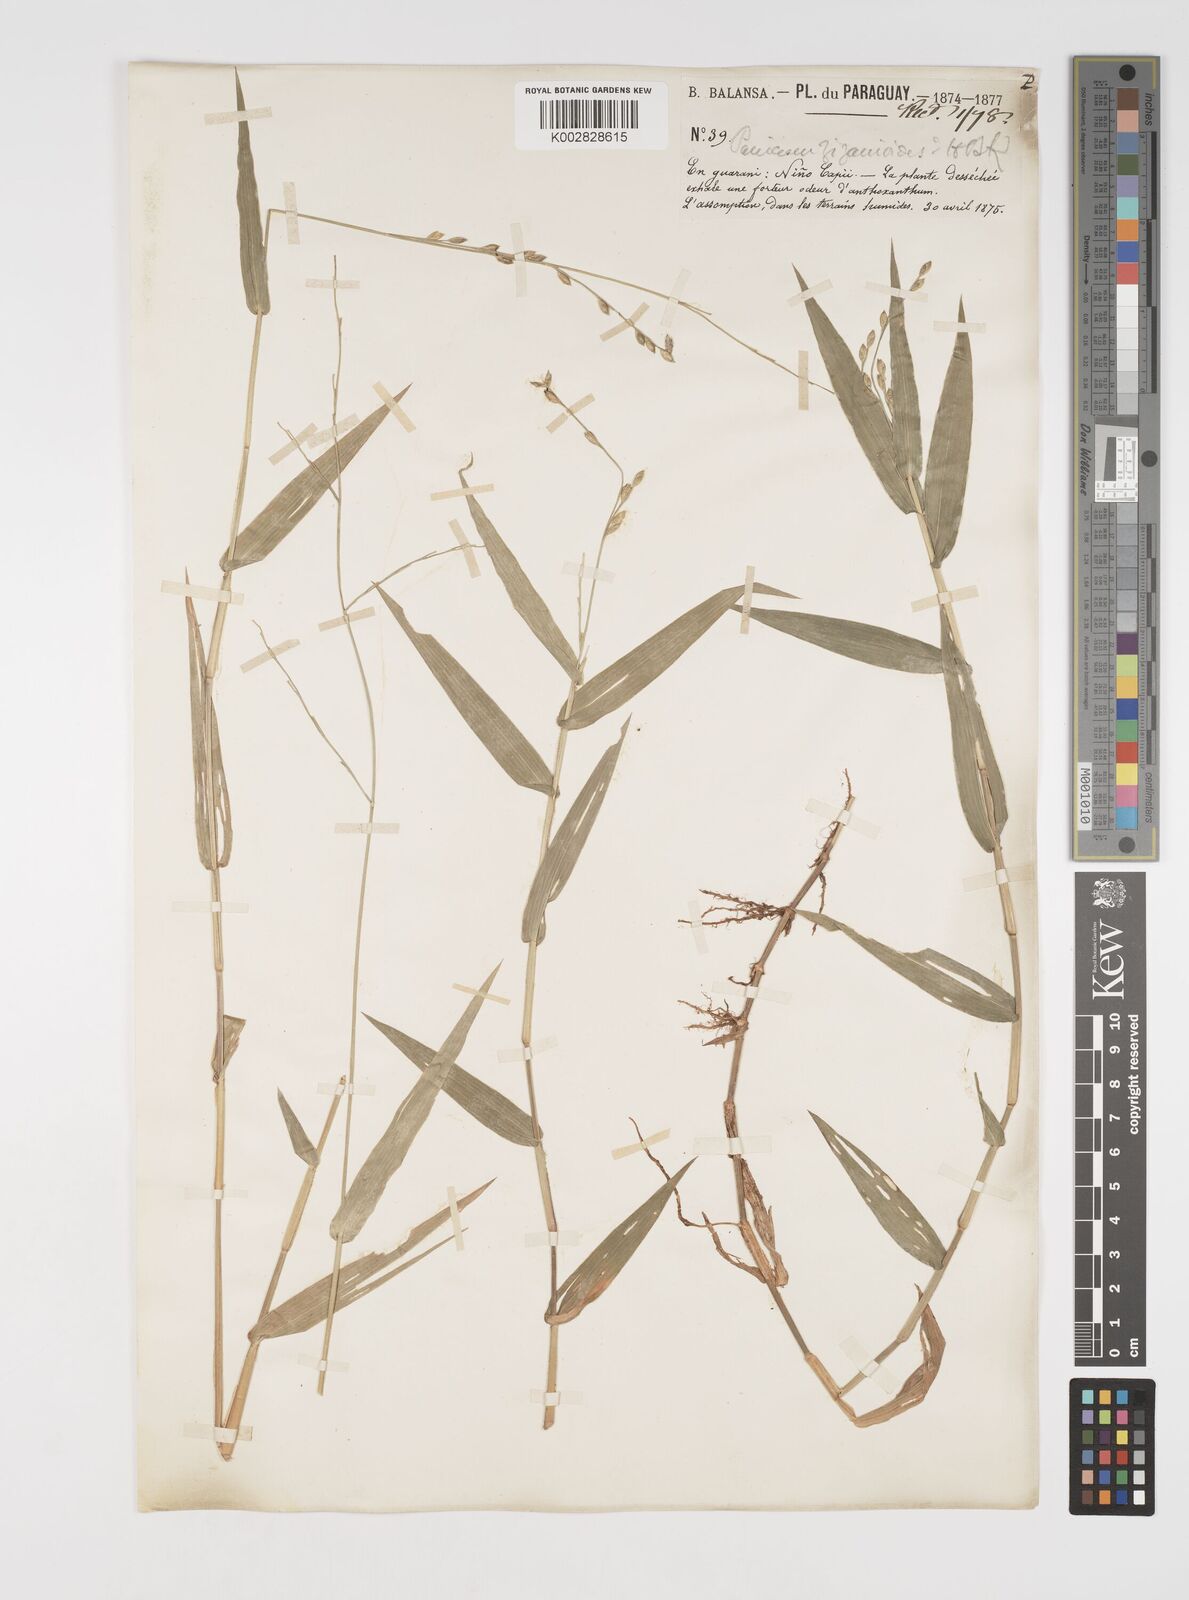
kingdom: Plantae
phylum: Tracheophyta
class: Liliopsida
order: Poales
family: Poaceae
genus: Acroceras
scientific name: Acroceras zizanioides
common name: Oat grass
